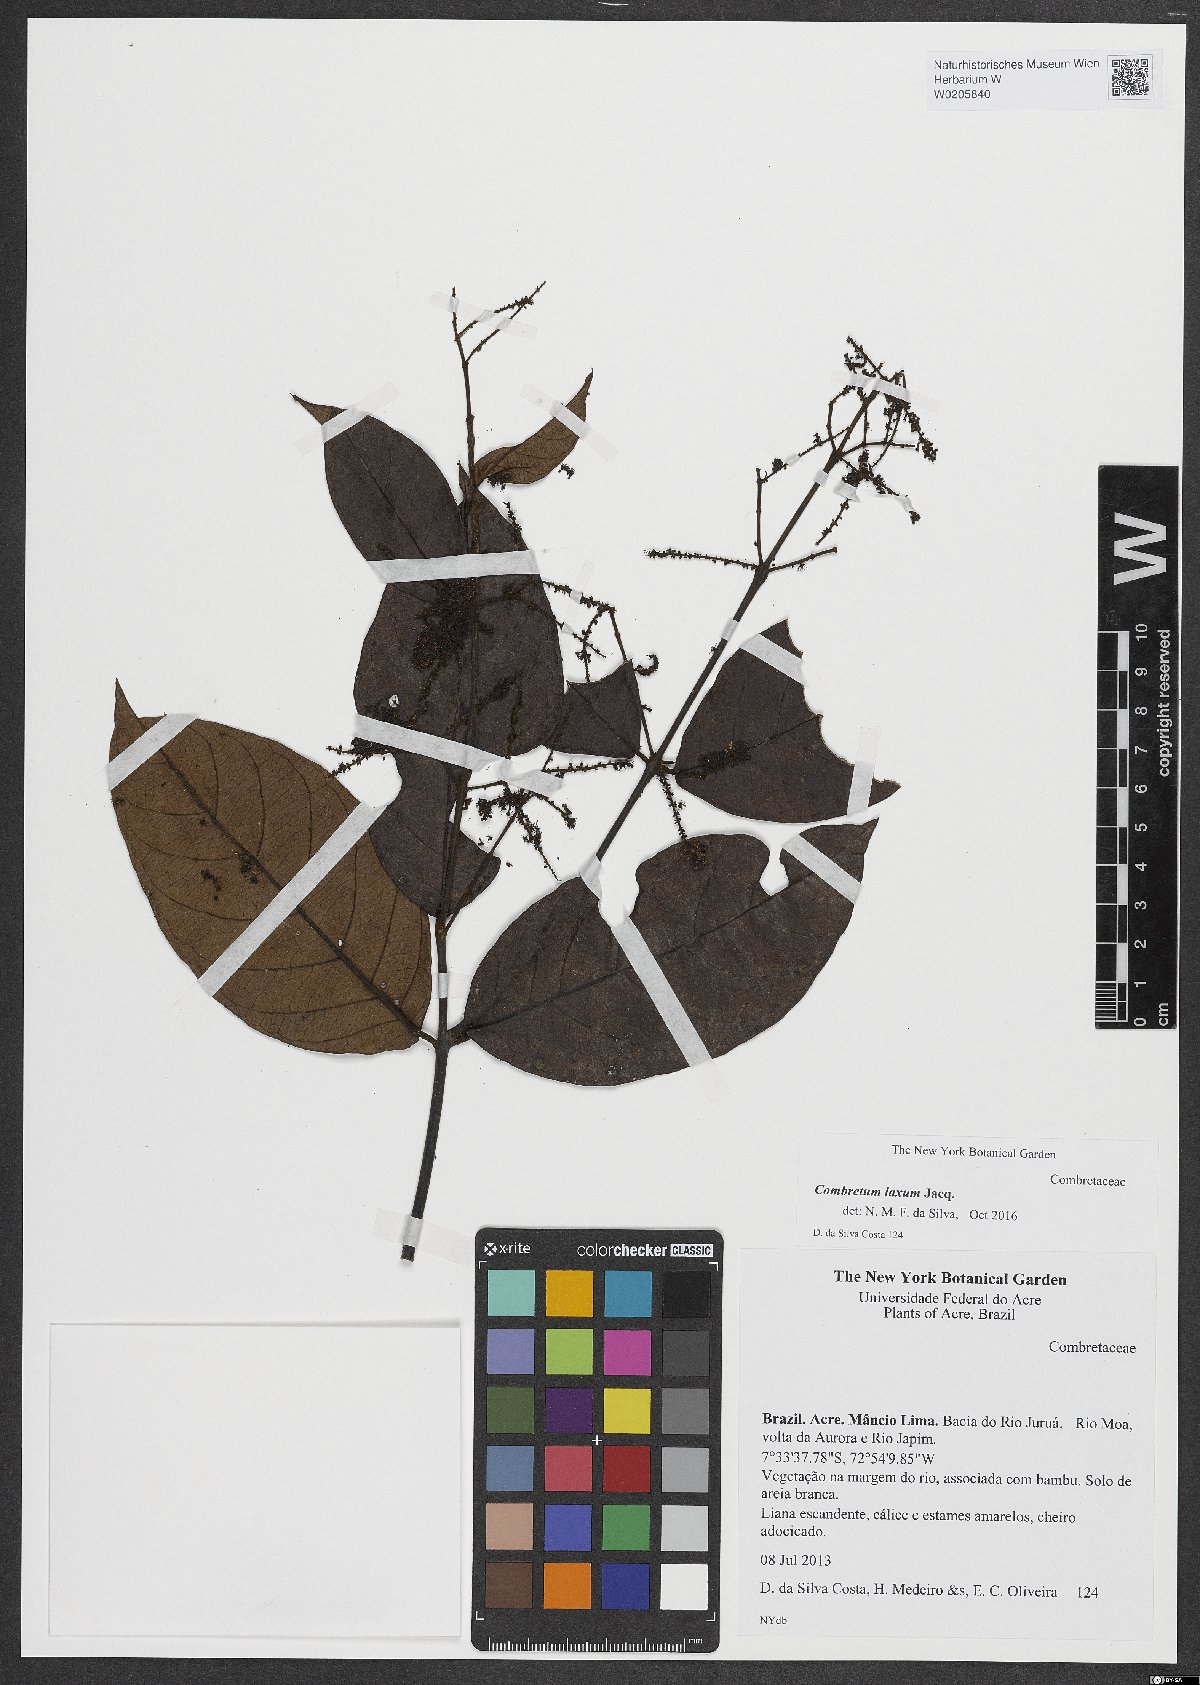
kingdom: Plantae
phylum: Tracheophyta
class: Magnoliopsida
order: Myrtales
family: Combretaceae
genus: Combretum
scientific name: Combretum laxum
